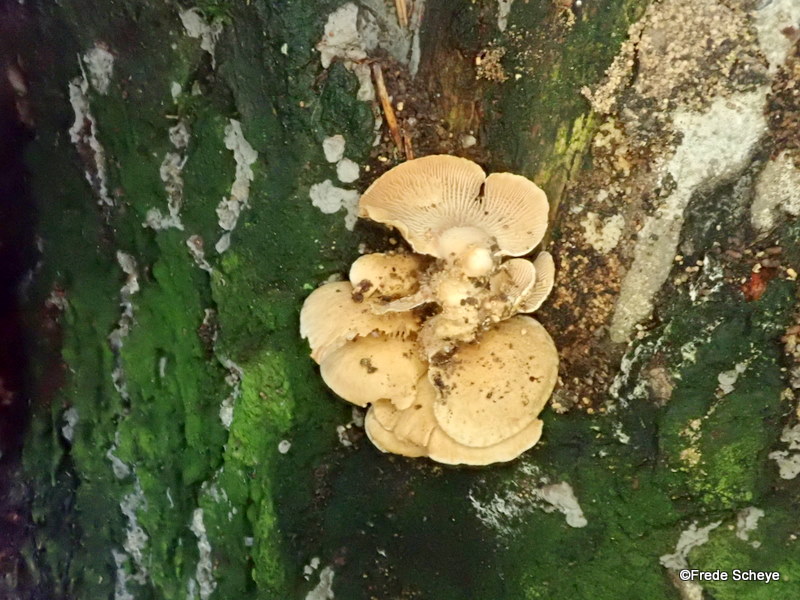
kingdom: Fungi
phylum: Basidiomycota
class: Agaricomycetes
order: Agaricales
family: Mycenaceae
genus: Panellus
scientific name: Panellus stipticus
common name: kliddet epaulethat
